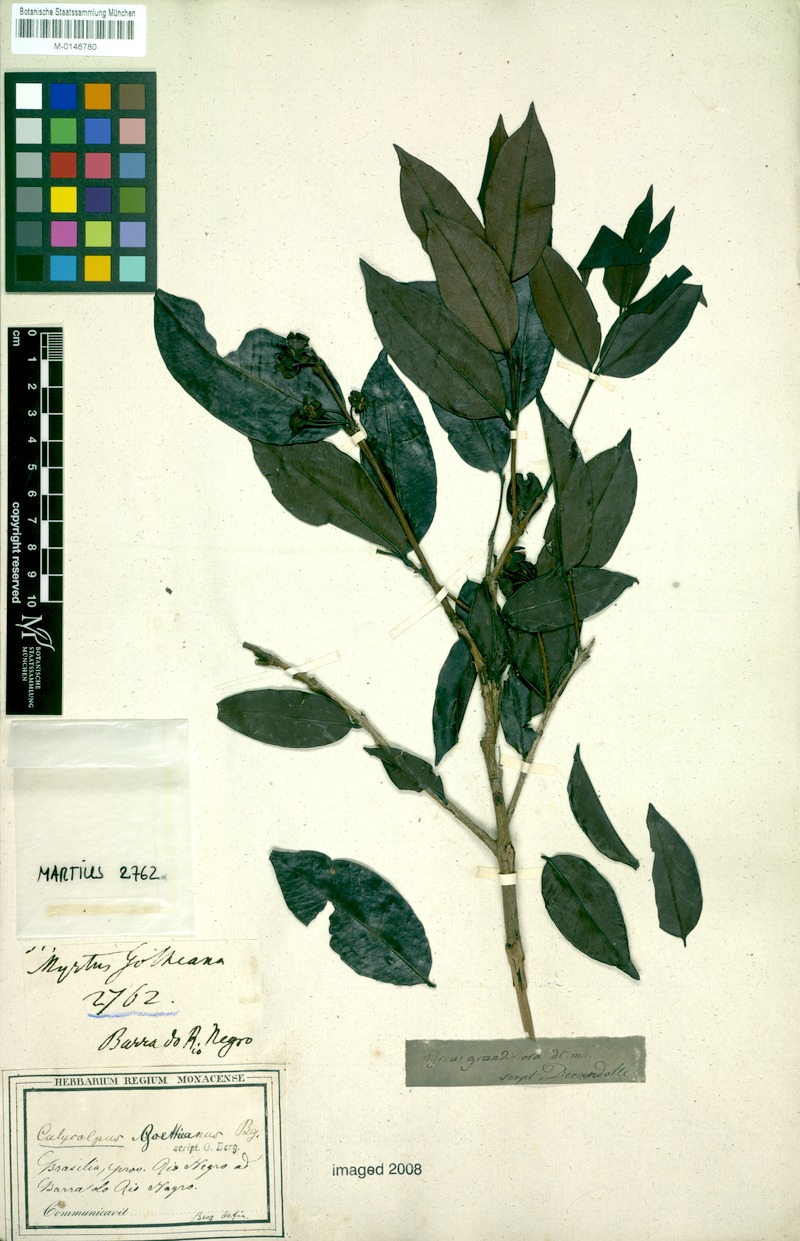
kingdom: Plantae
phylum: Tracheophyta
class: Magnoliopsida
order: Myrtales
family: Myrtaceae
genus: Calycolpus
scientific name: Calycolpus goetheanus
